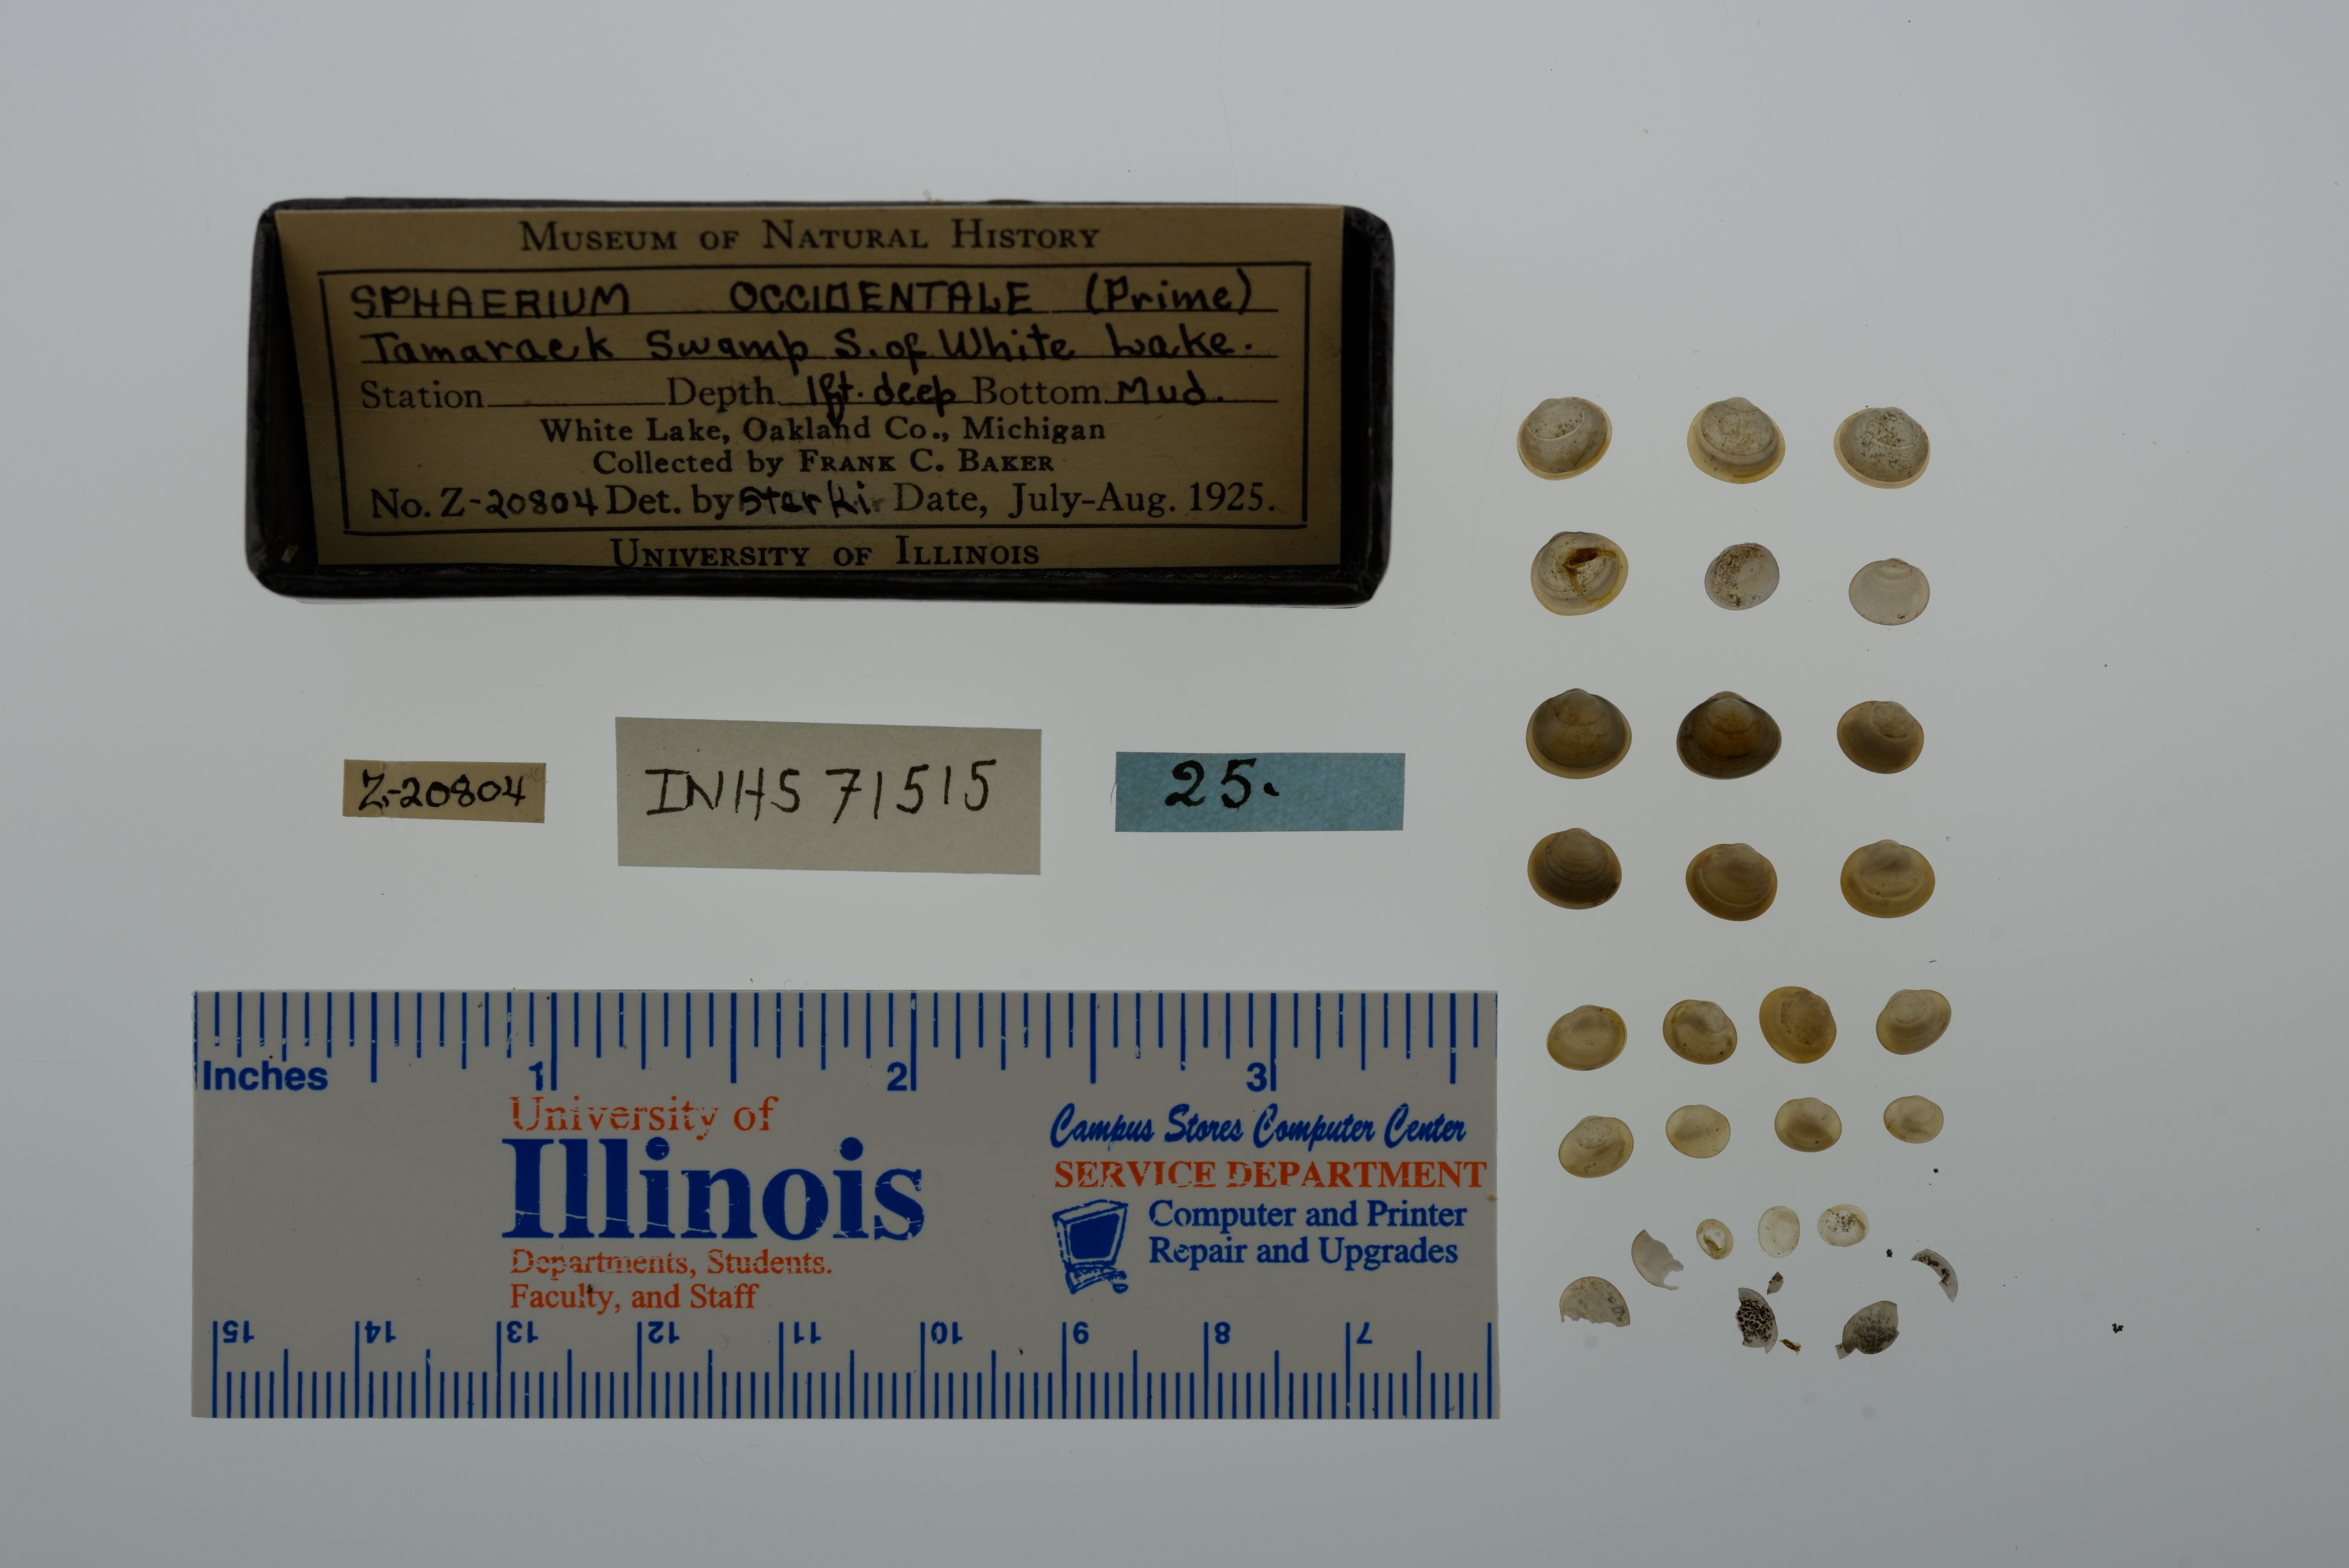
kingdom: Animalia
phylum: Mollusca
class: Bivalvia
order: Sphaeriida
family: Sphaeriidae
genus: Sphaerium
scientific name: Sphaerium occidentale
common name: Herrington fingernailclam
